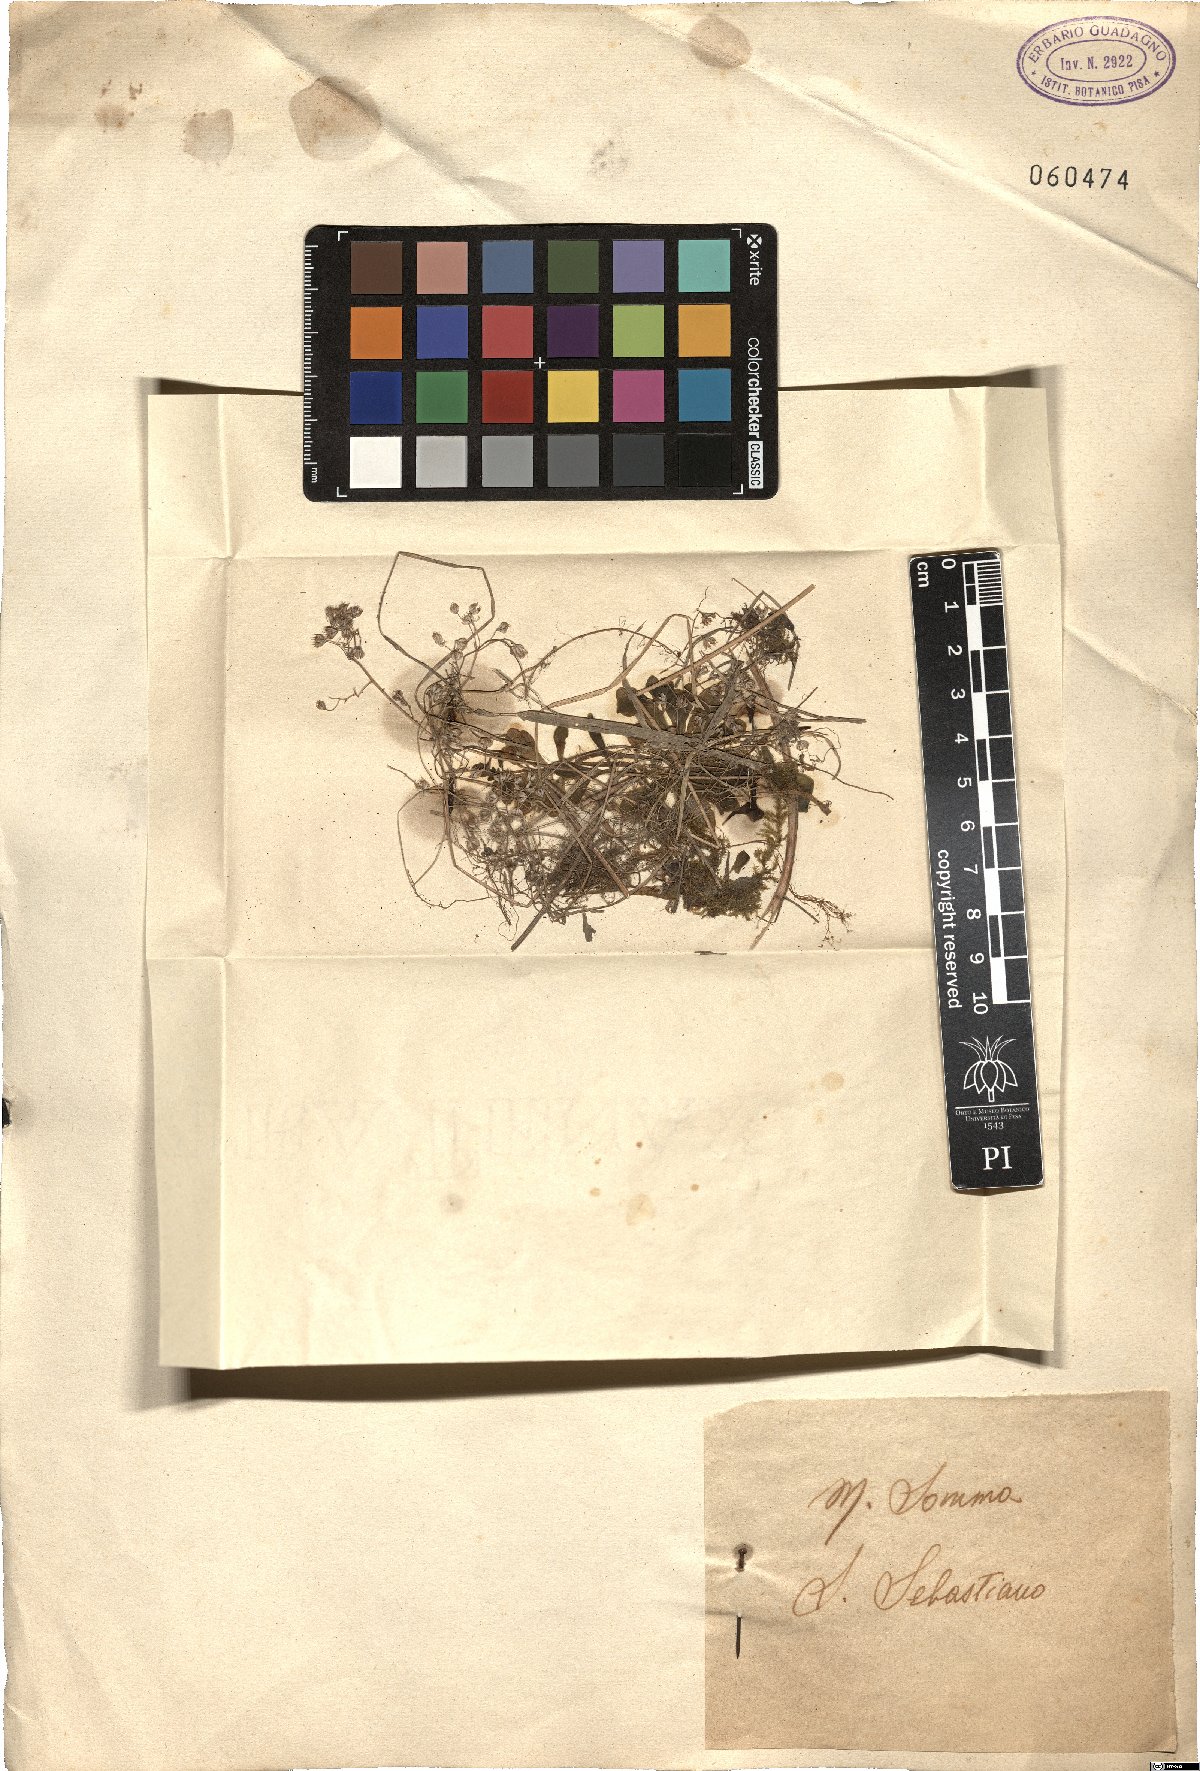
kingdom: Plantae
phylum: Tracheophyta
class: Liliopsida
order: Asparagales
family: Amaryllidaceae
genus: Allium
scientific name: Allium
